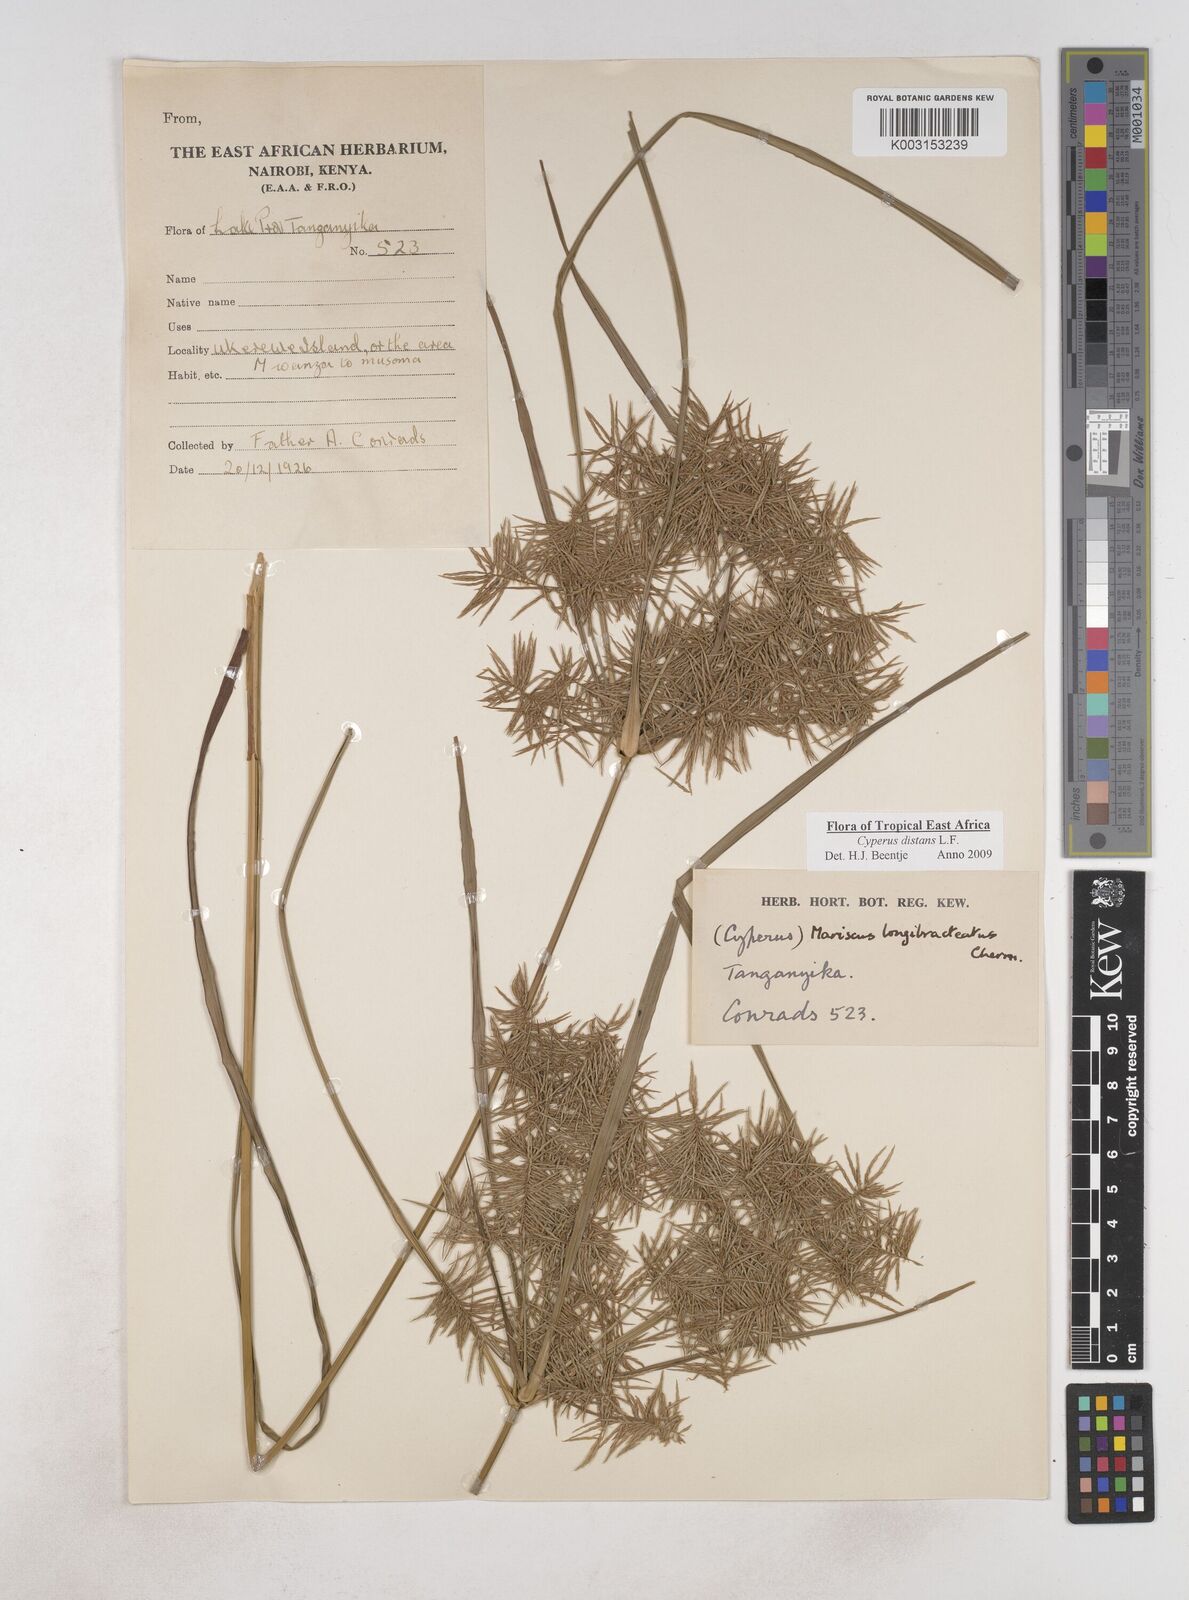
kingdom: Plantae
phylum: Tracheophyta
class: Liliopsida
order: Poales
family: Cyperaceae
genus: Cyperus
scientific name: Cyperus distans
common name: Slender cyperus
